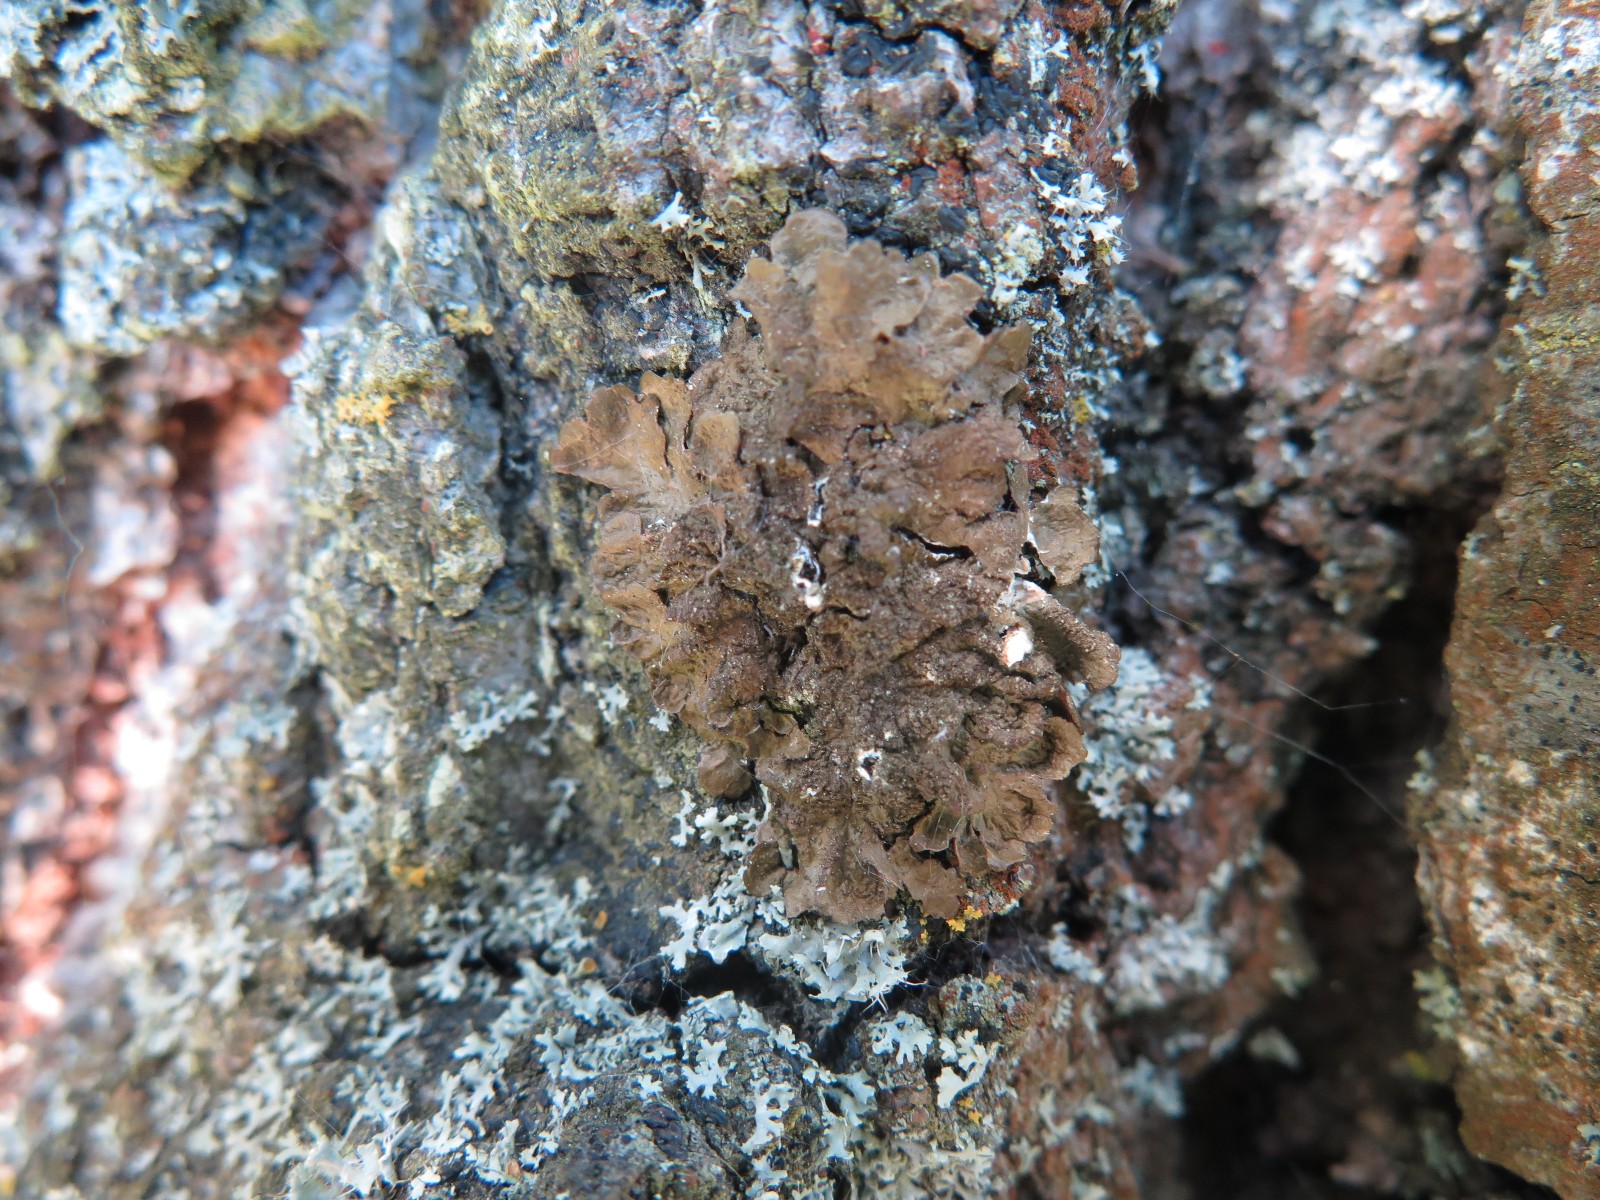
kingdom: Fungi
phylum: Ascomycota
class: Lecanoromycetes
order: Lecanorales
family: Parmeliaceae
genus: Melanelixia
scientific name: Melanelixia subaurifera
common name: guldpudret skållav
